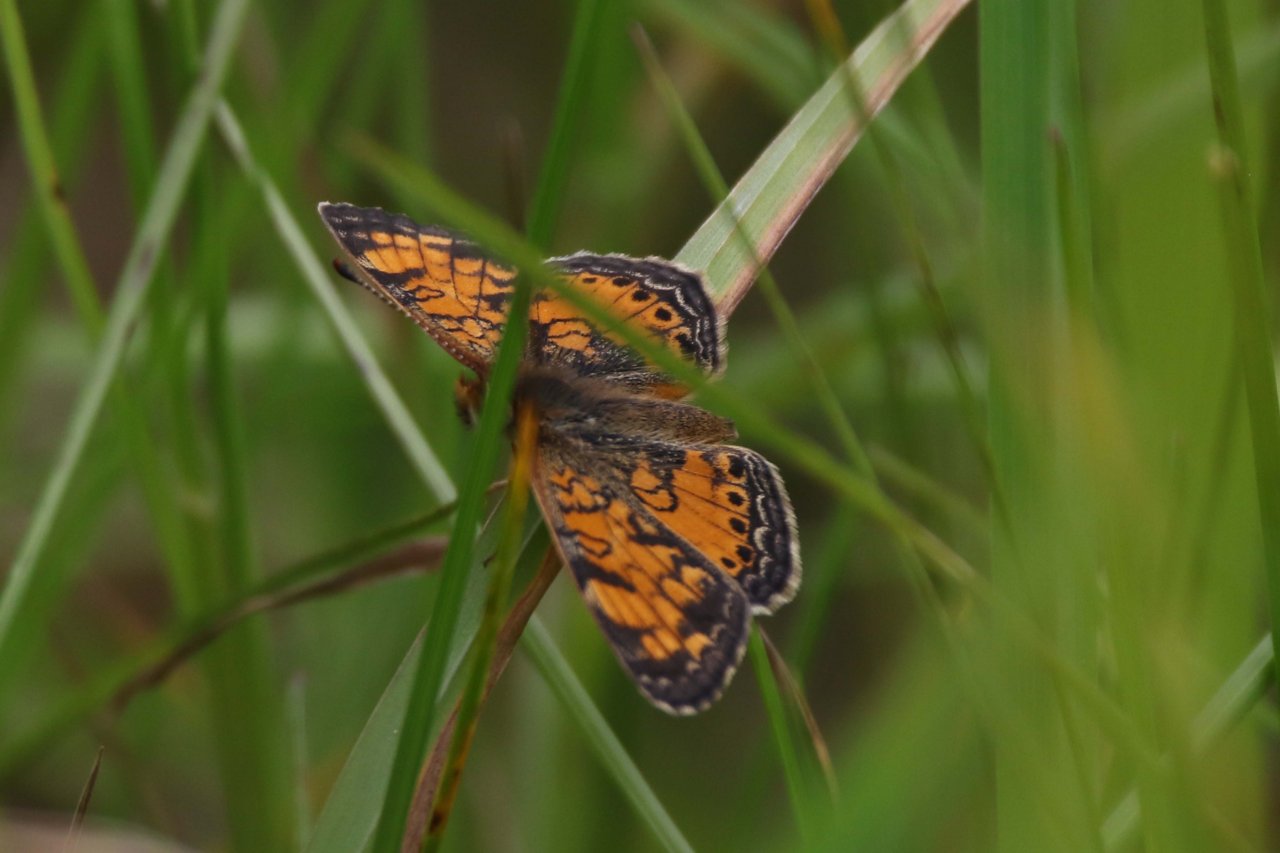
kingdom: Animalia
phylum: Arthropoda
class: Insecta
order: Lepidoptera
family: Nymphalidae
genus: Phyciodes
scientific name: Phyciodes
